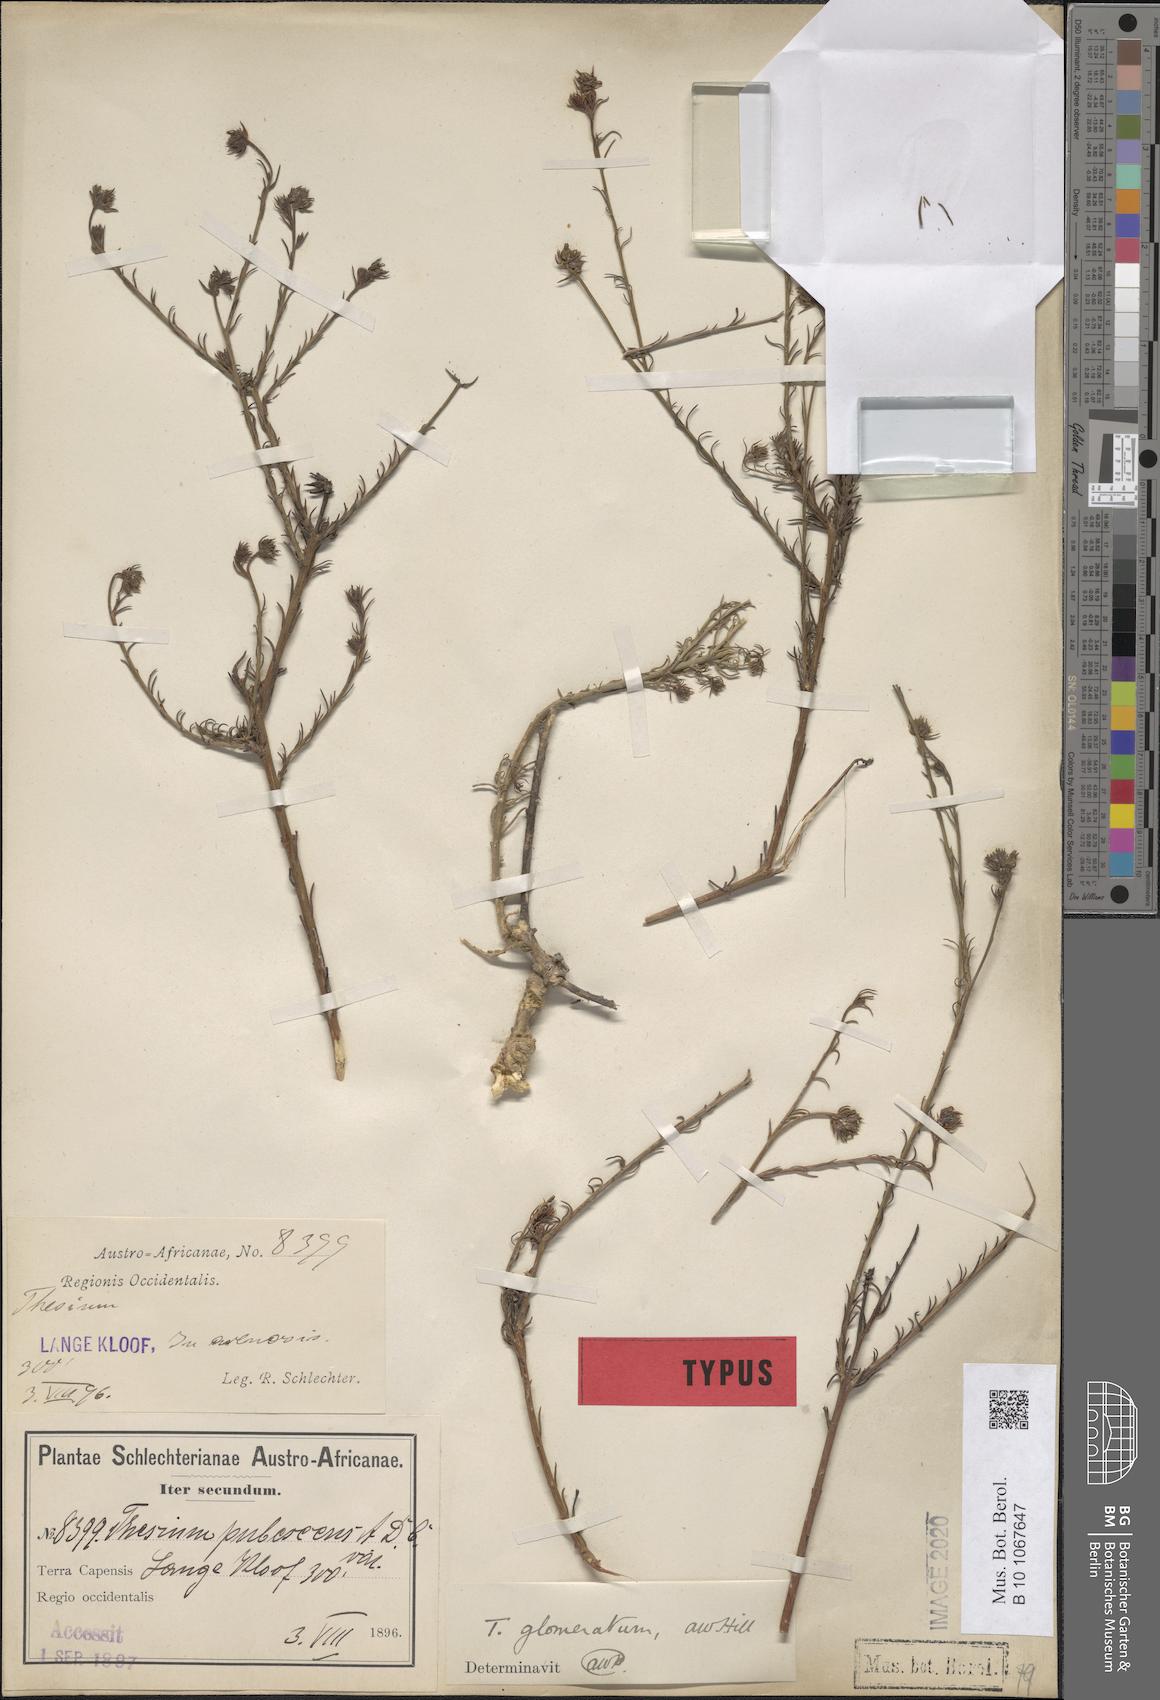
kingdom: Plantae
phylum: Tracheophyta
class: Magnoliopsida
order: Santalales
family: Thesiaceae
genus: Thesium
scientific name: Thesium glomeratum
